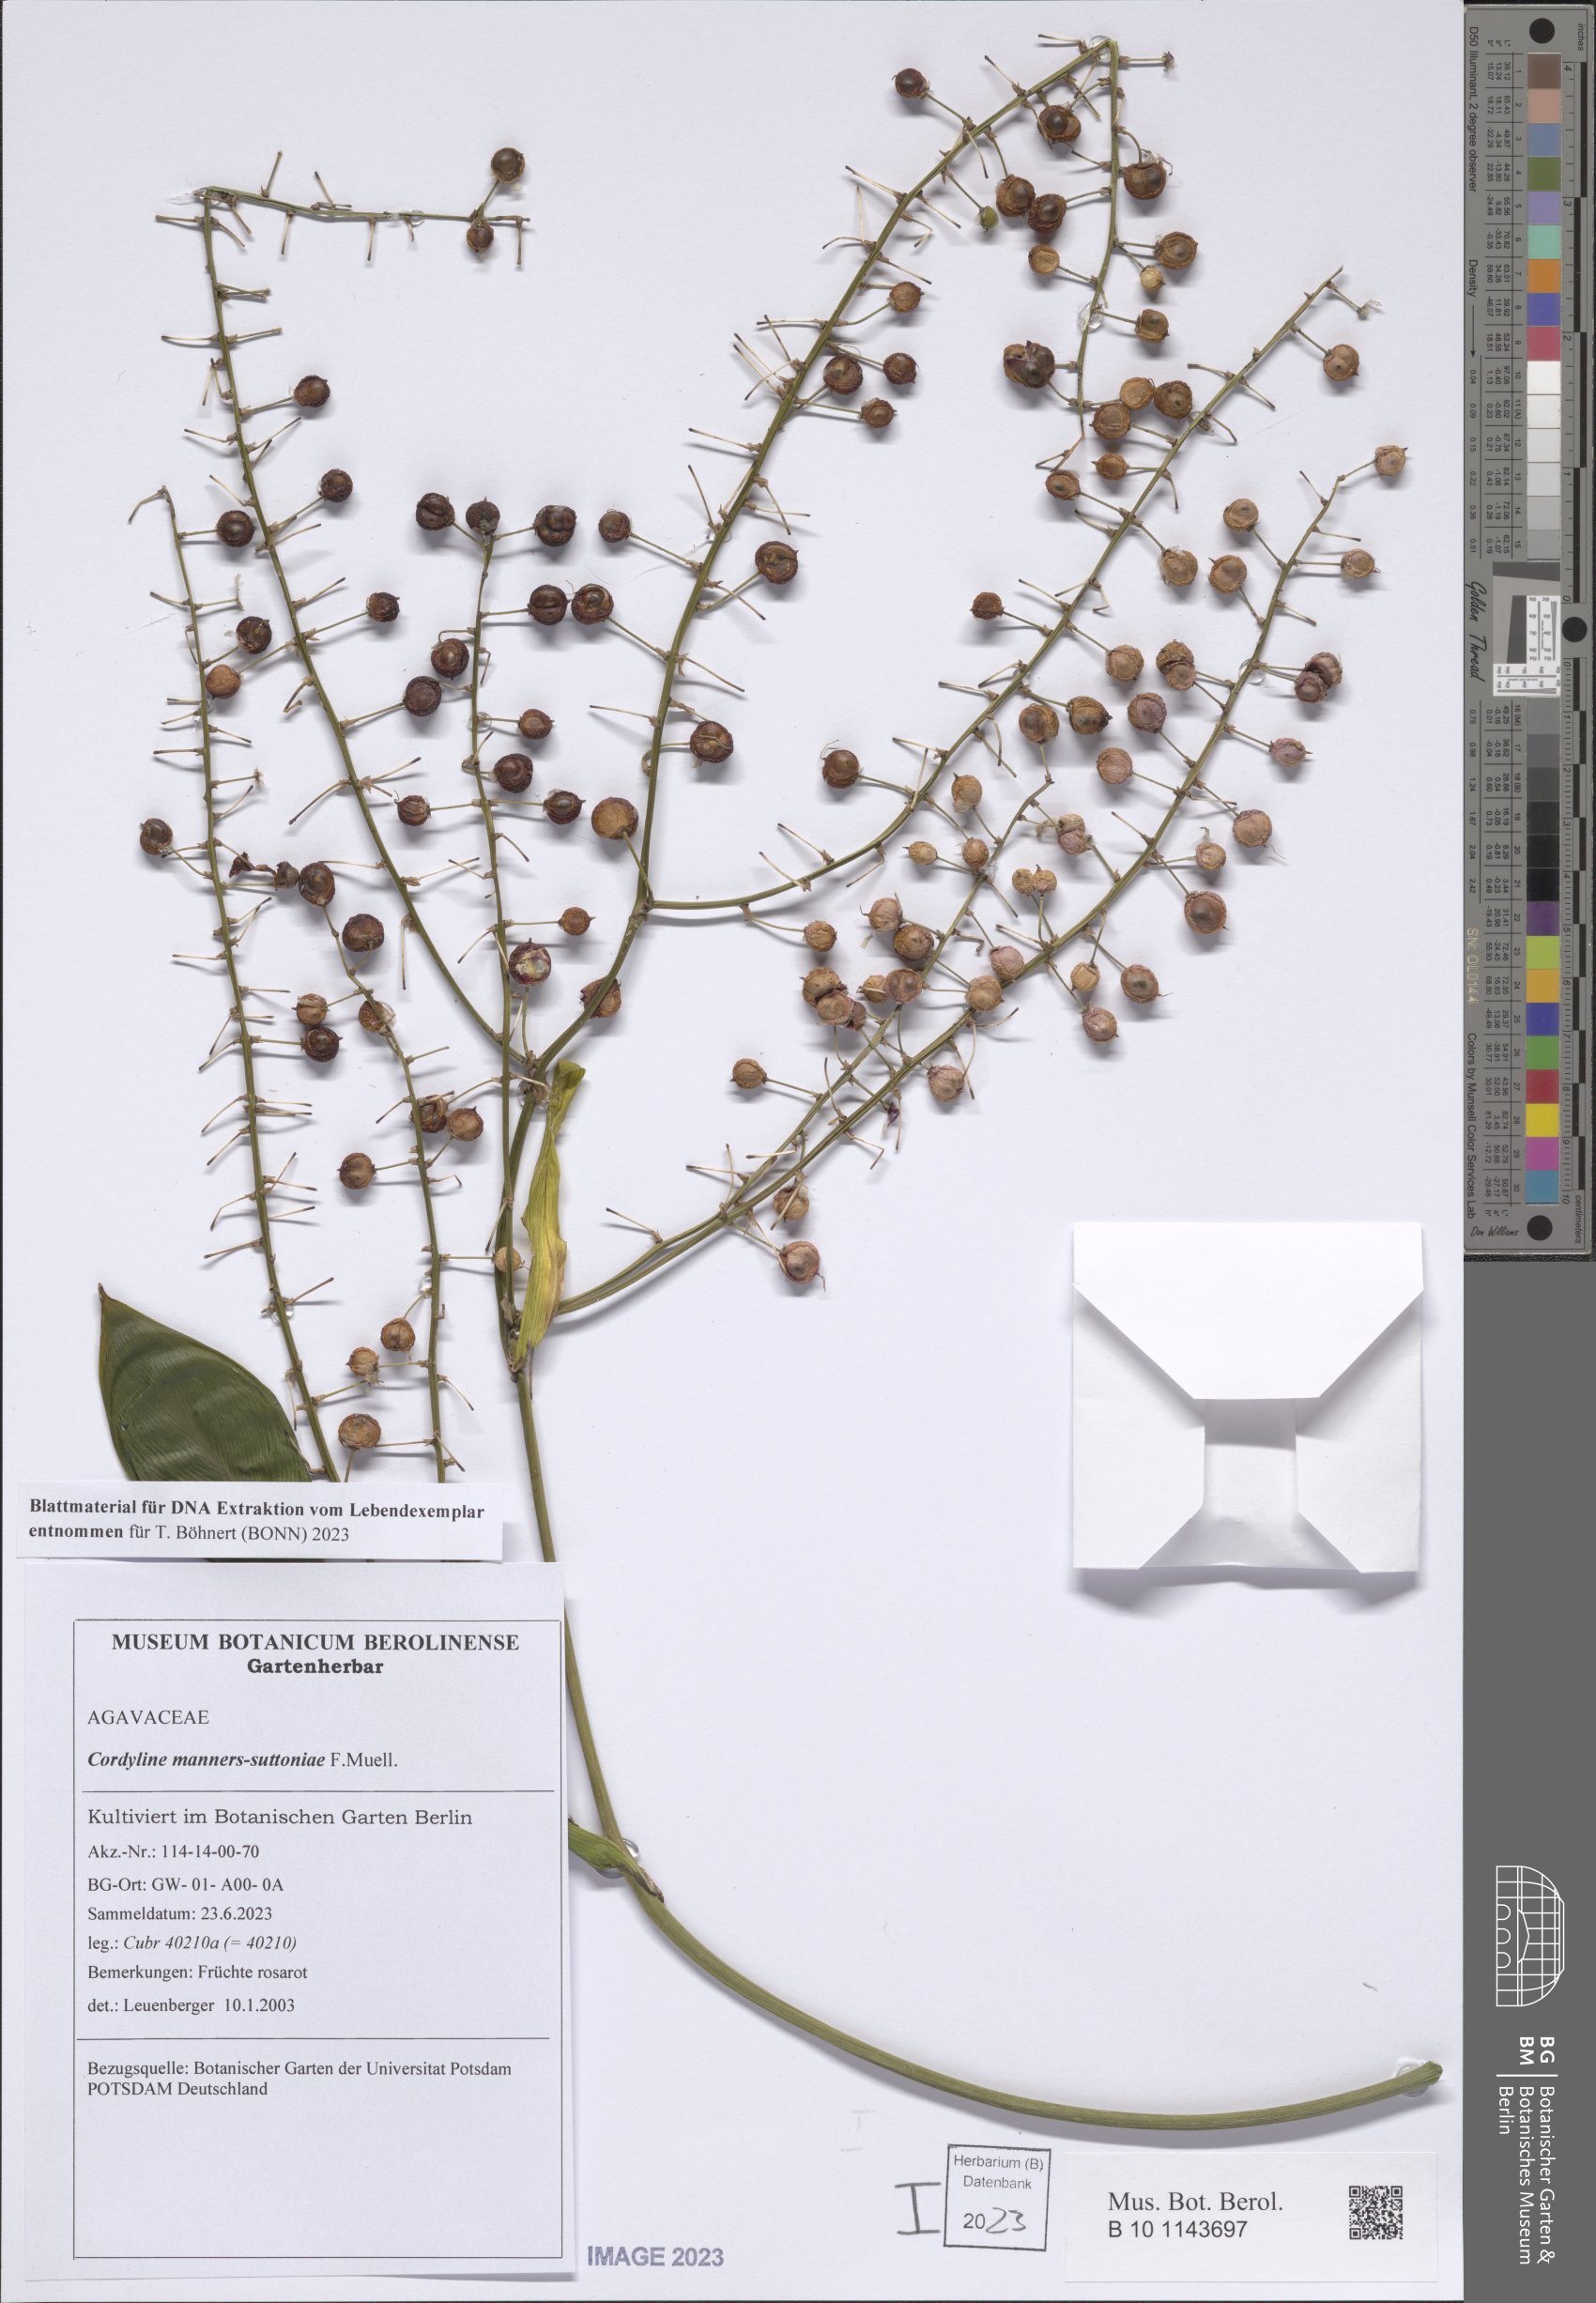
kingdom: Plantae
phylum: Tracheophyta
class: Liliopsida
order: Asparagales
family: Asparagaceae
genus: Cordyline
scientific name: Cordyline manners-suttoniae
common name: Giant palm-lily
